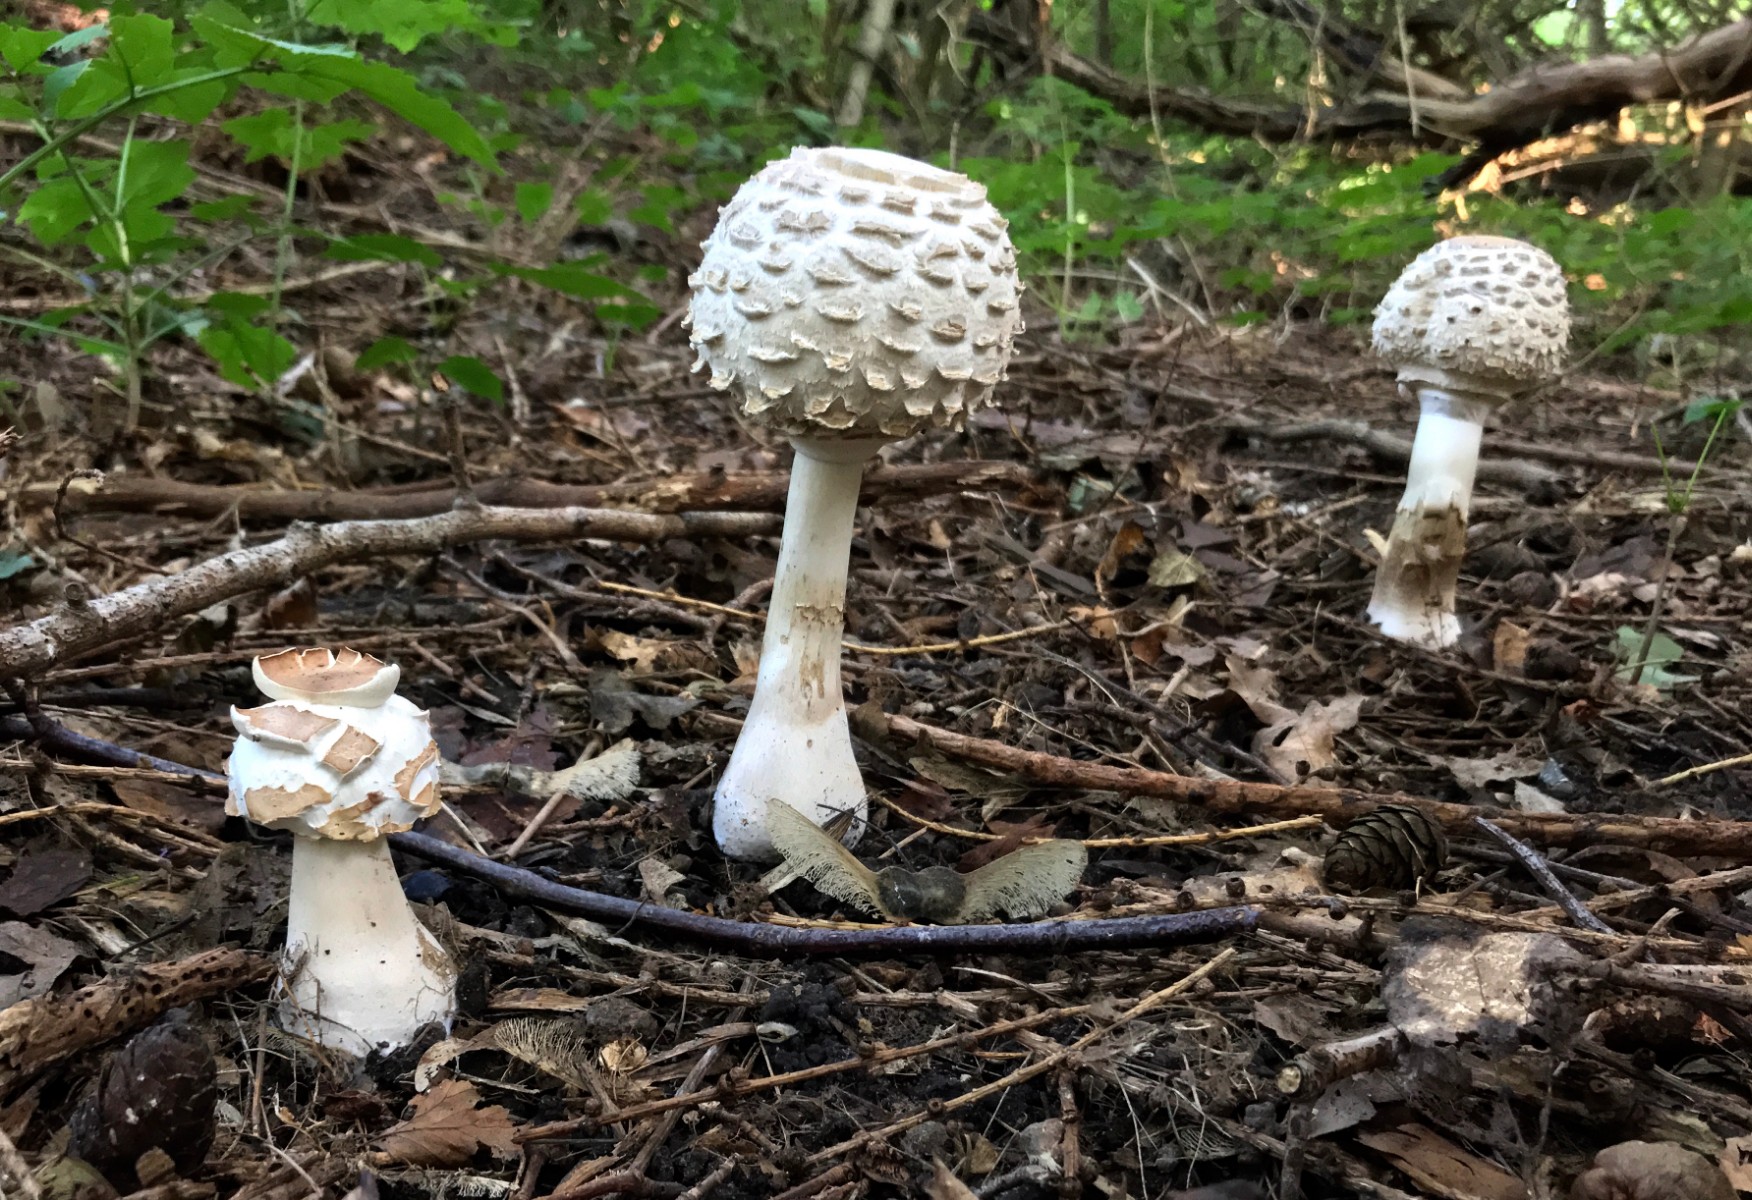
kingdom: Fungi
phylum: Basidiomycota
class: Agaricomycetes
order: Agaricales
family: Agaricaceae
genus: Chlorophyllum
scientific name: Chlorophyllum
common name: rabarberhat
